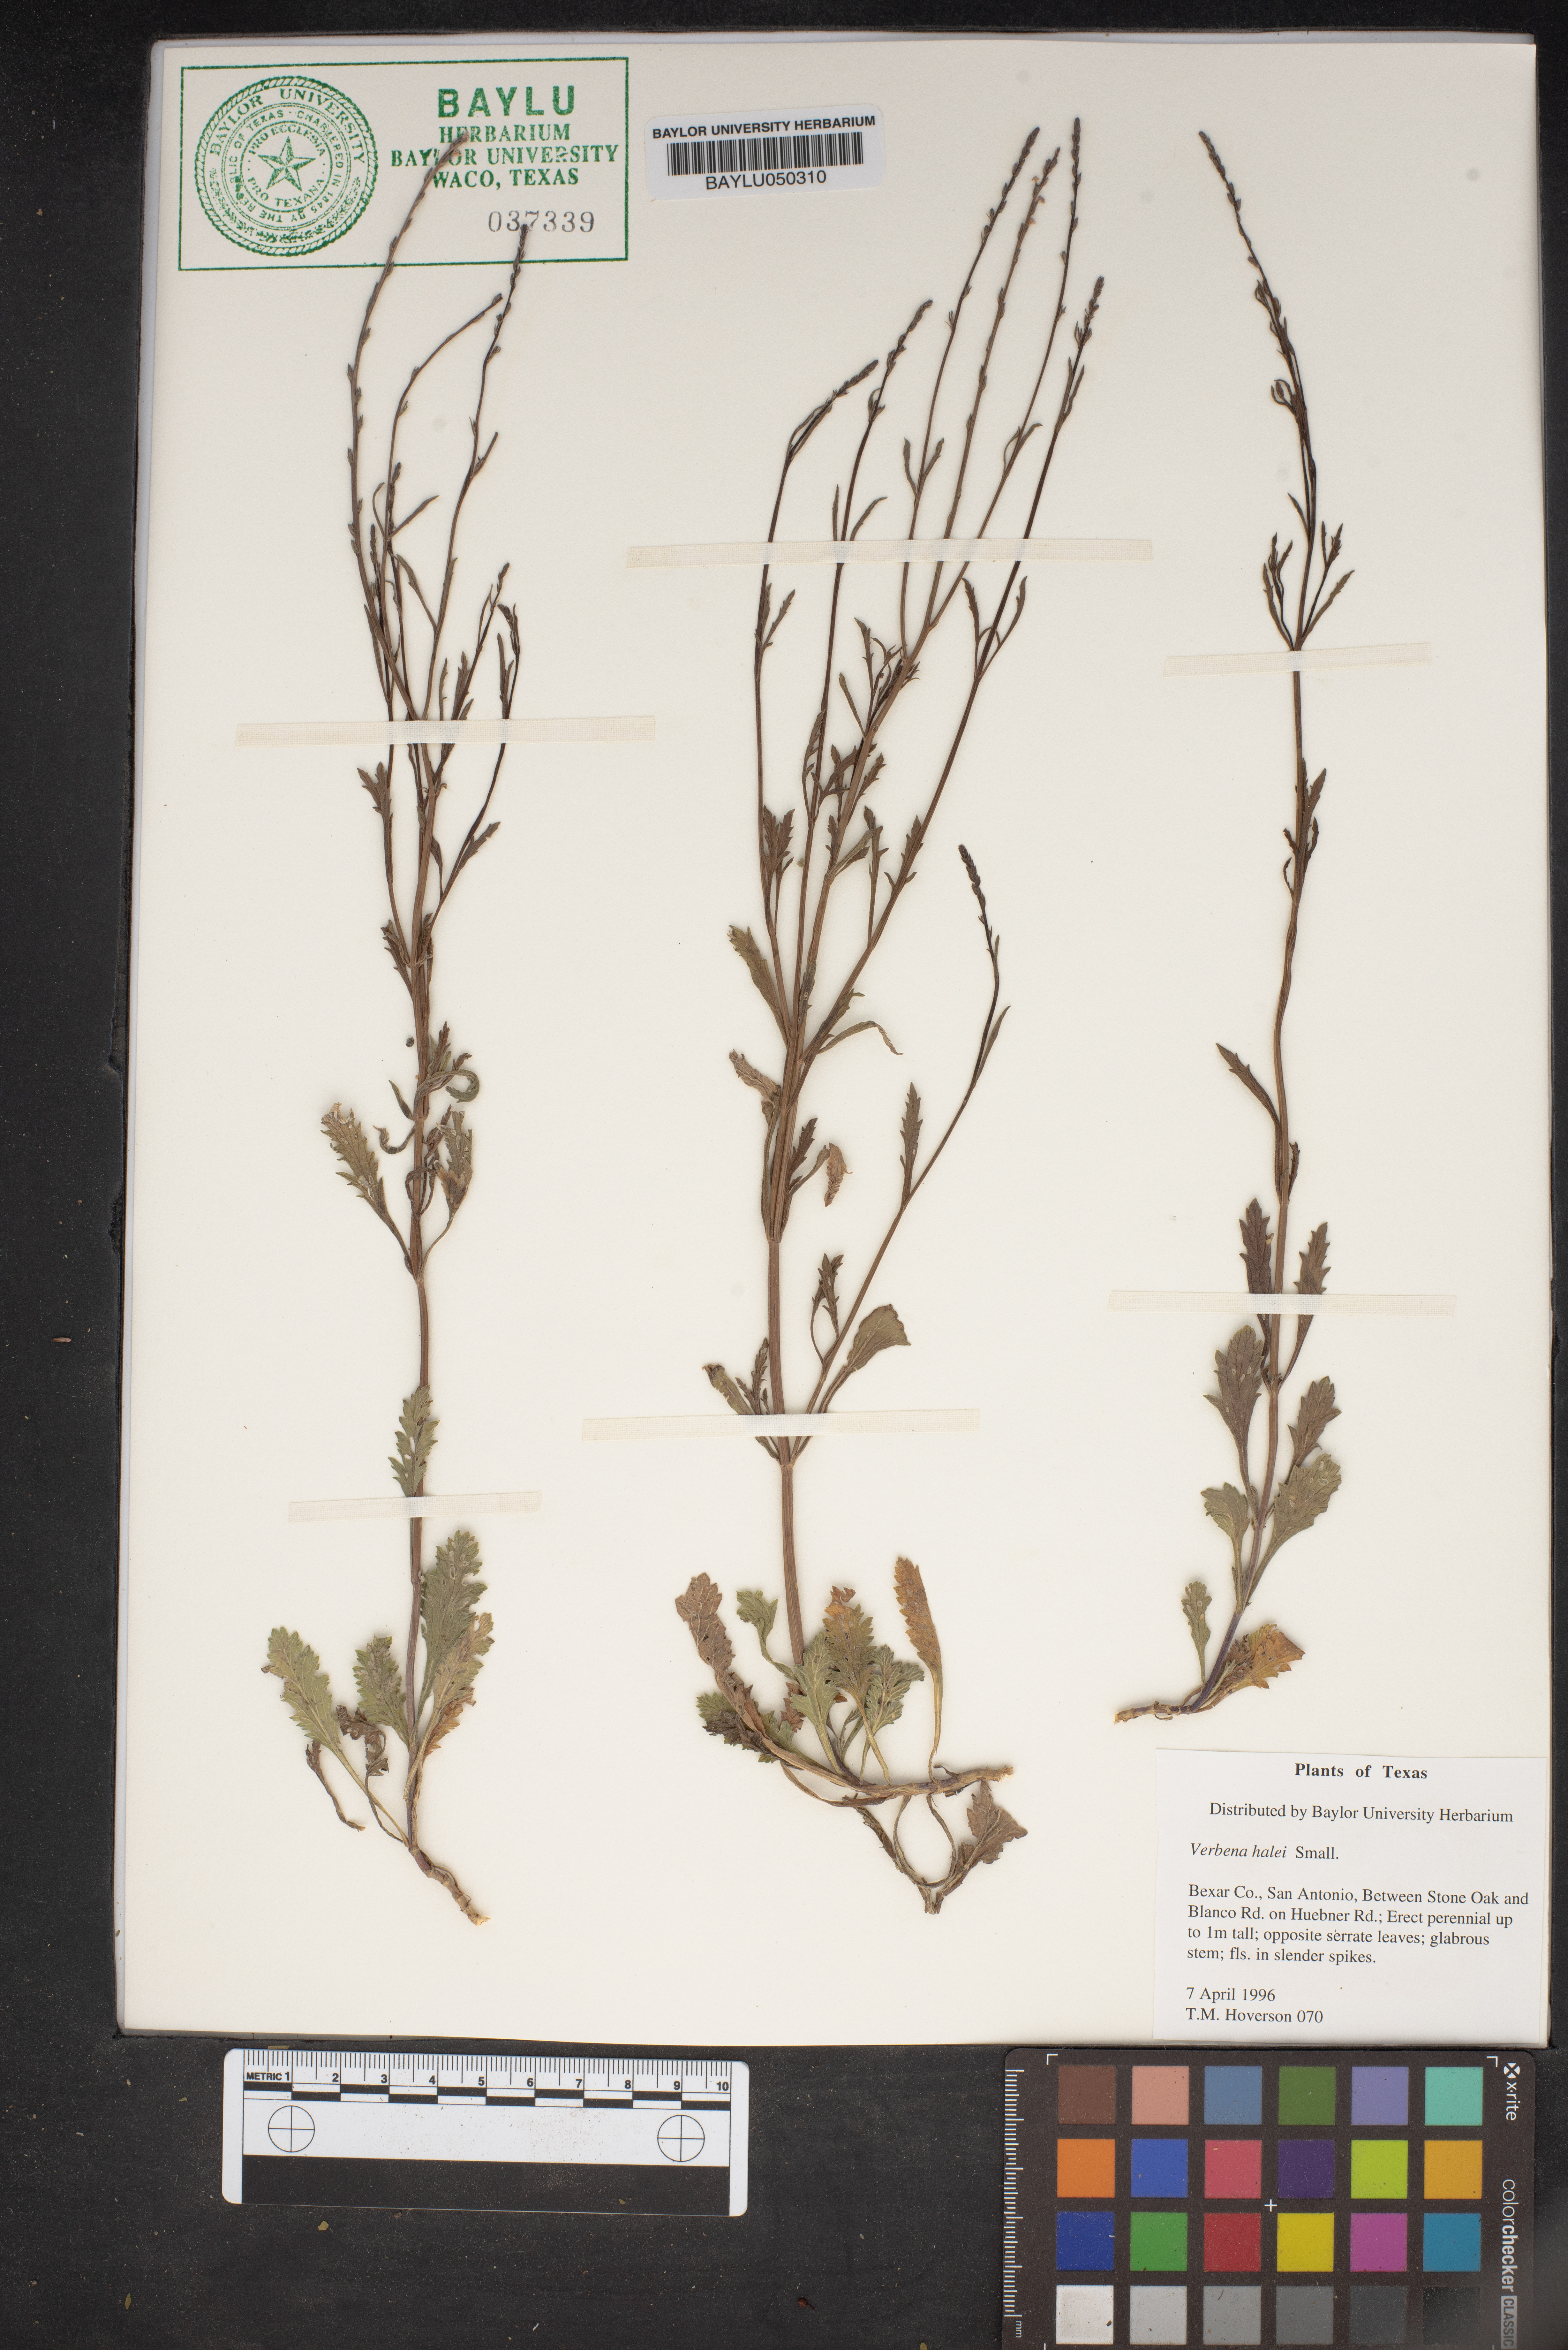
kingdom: Plantae
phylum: Tracheophyta
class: Magnoliopsida
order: Lamiales
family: Verbenaceae
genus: Verbena
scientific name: Verbena halei
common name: Texas vervain
